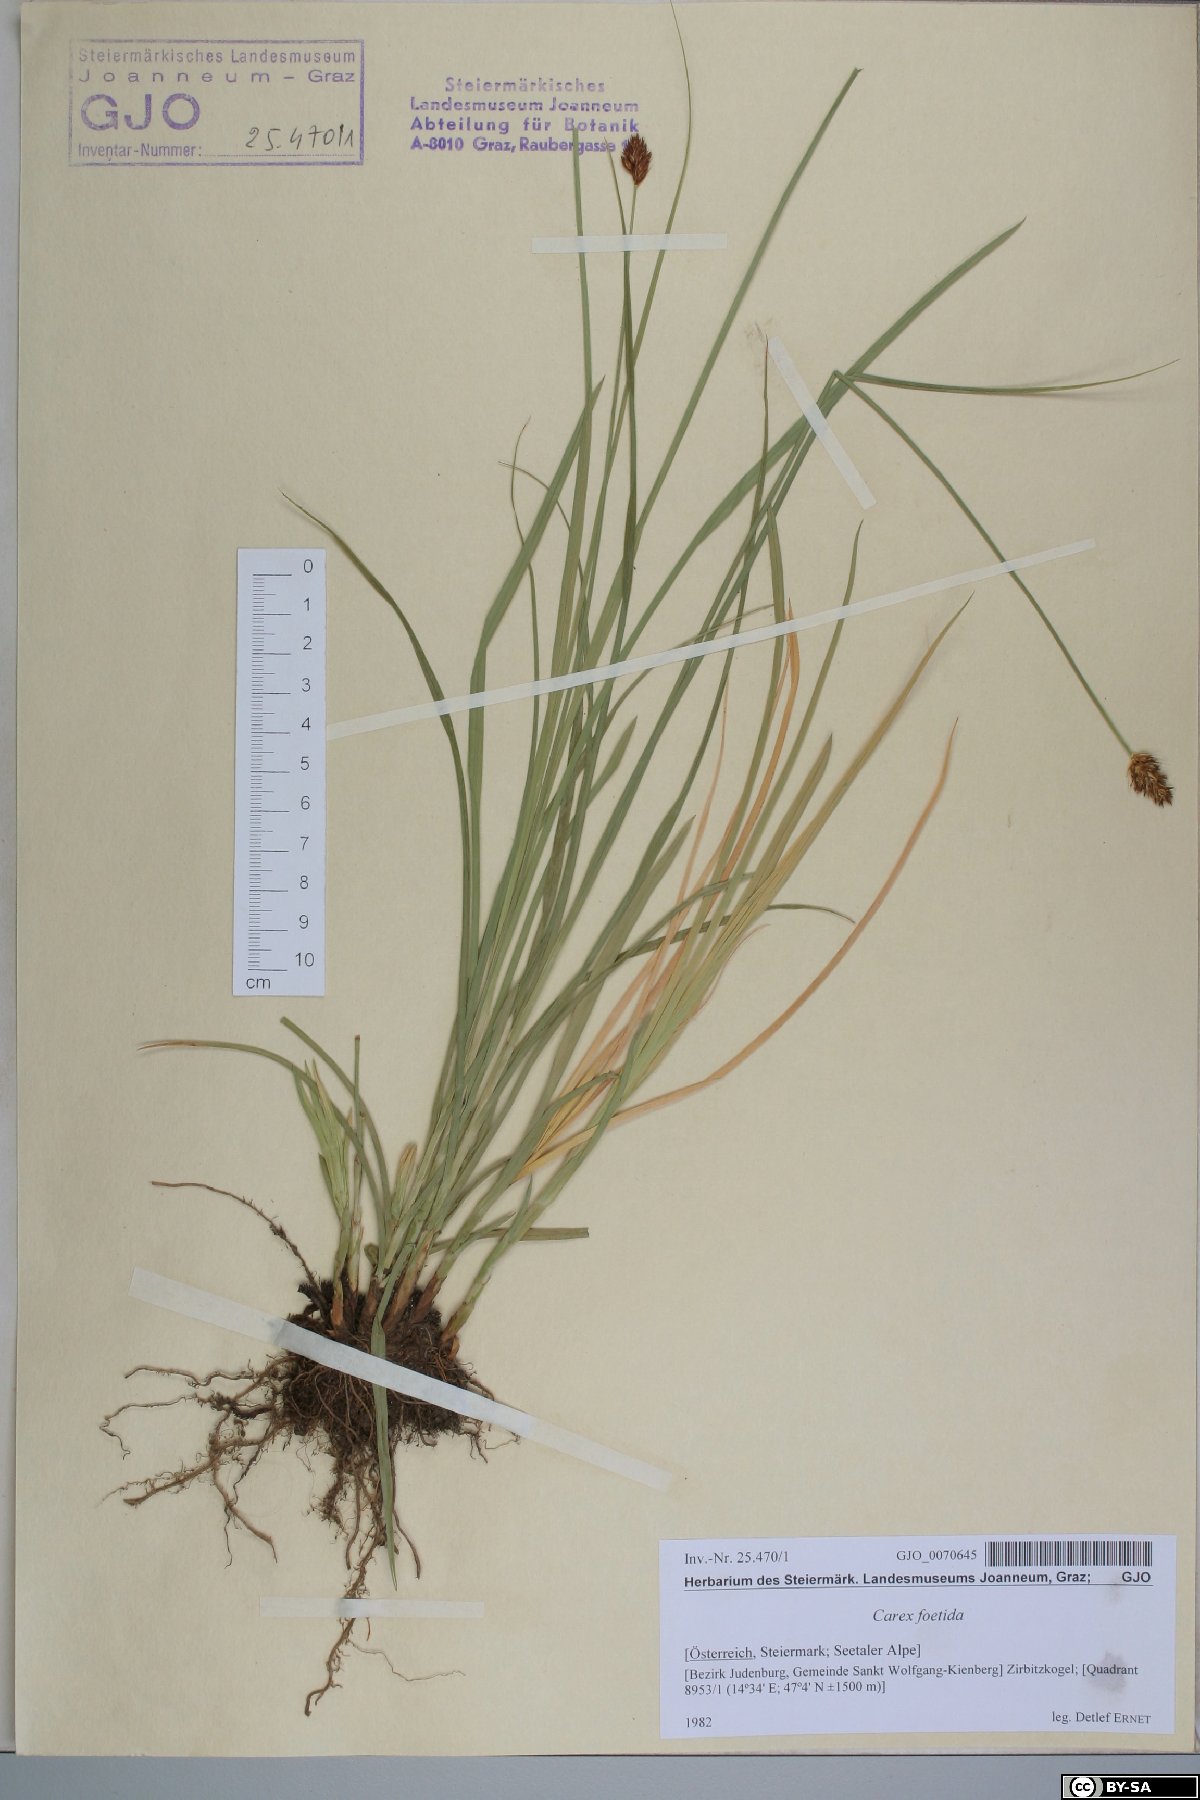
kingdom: Plantae
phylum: Tracheophyta
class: Liliopsida
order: Poales
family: Cyperaceae
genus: Carex
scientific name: Carex foetida
